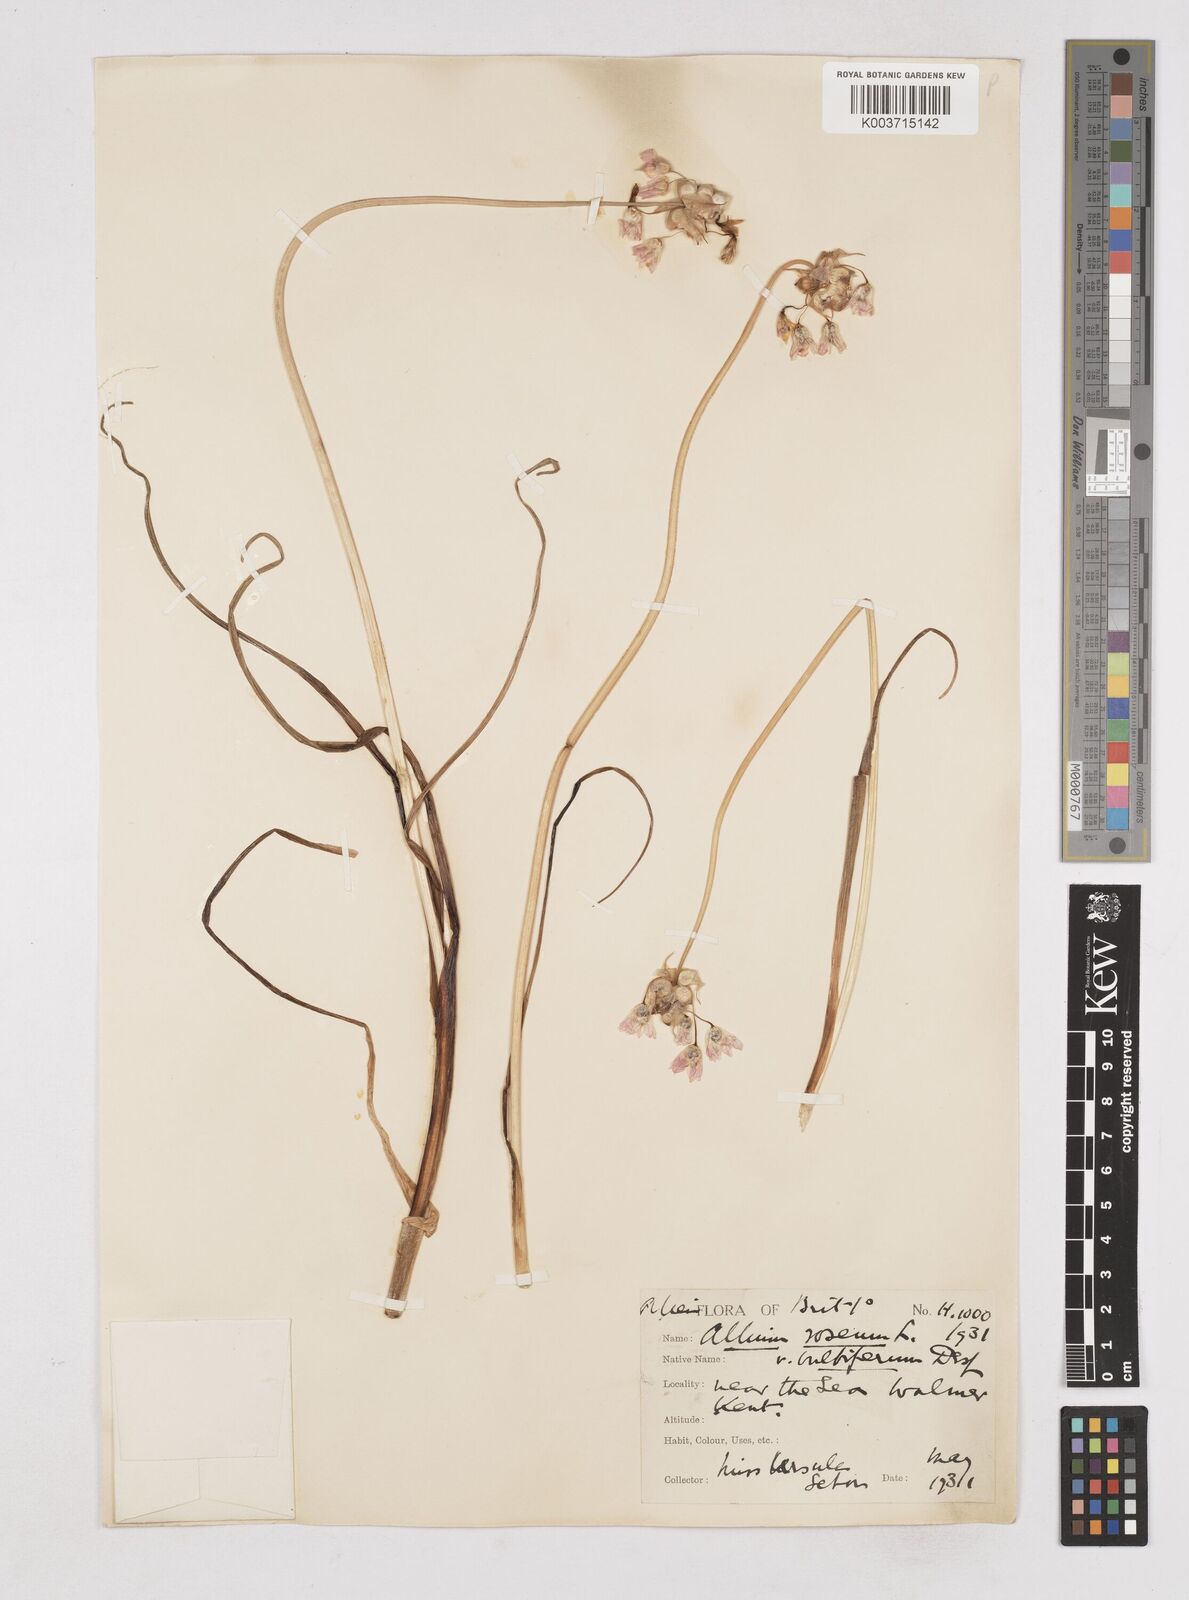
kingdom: Plantae
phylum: Tracheophyta
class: Liliopsida
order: Asparagales
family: Amaryllidaceae
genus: Allium
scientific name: Allium roseum
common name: Rosy garlic
